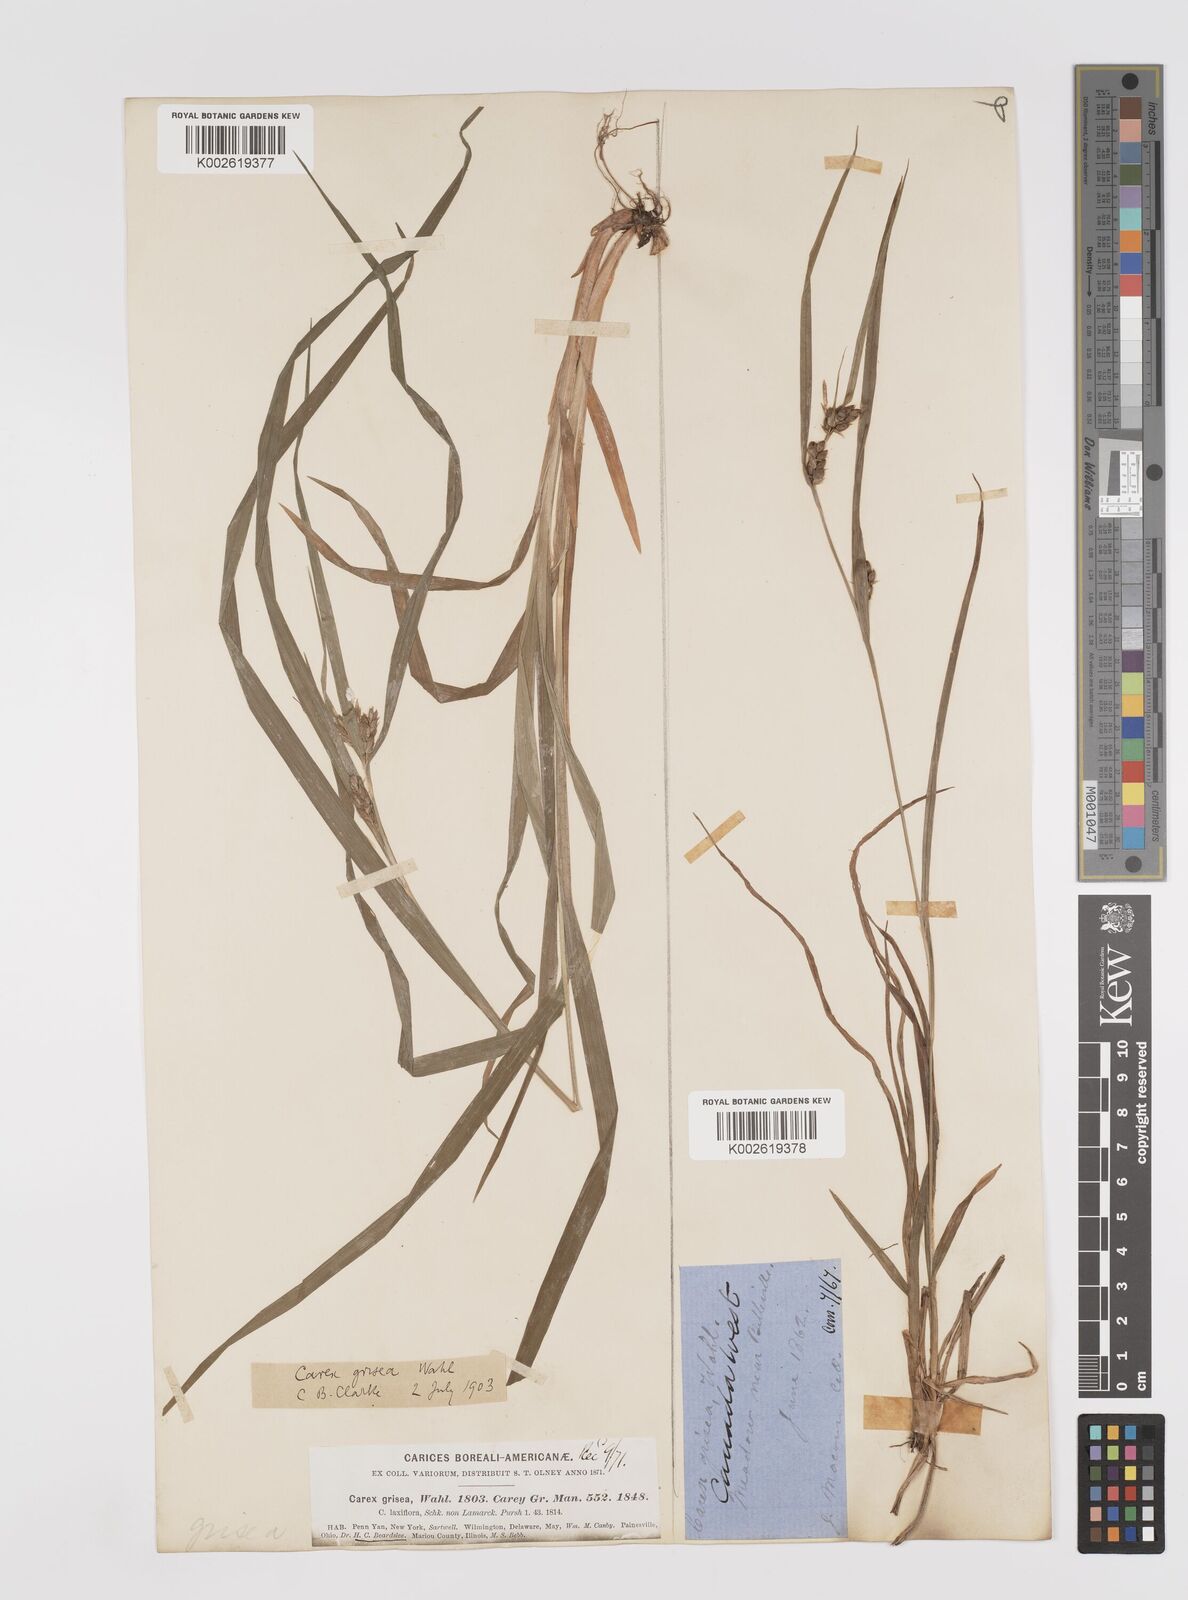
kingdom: Plantae
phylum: Tracheophyta
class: Liliopsida
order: Poales
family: Cyperaceae
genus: Carex
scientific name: Carex grisea
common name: Eastern narrow-leaved sedge
